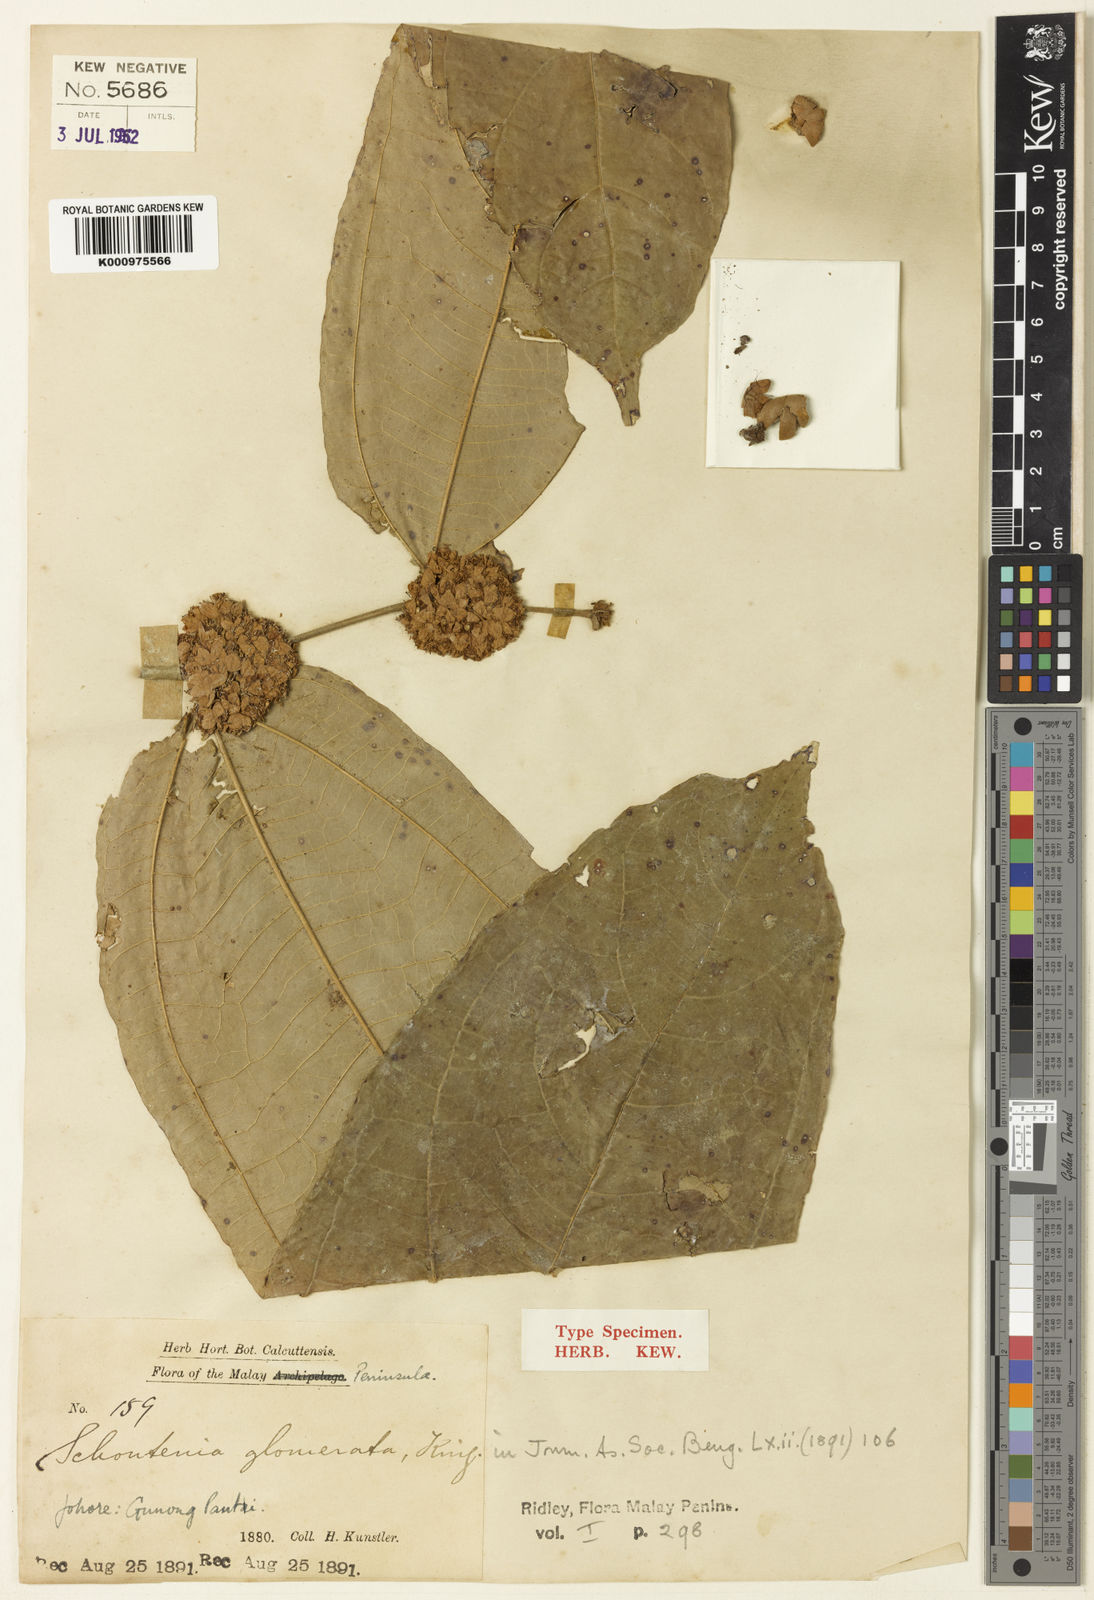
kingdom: Plantae
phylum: Tracheophyta
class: Magnoliopsida
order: Malvales
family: Malvaceae
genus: Schoutenia
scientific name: Schoutenia glomerata
